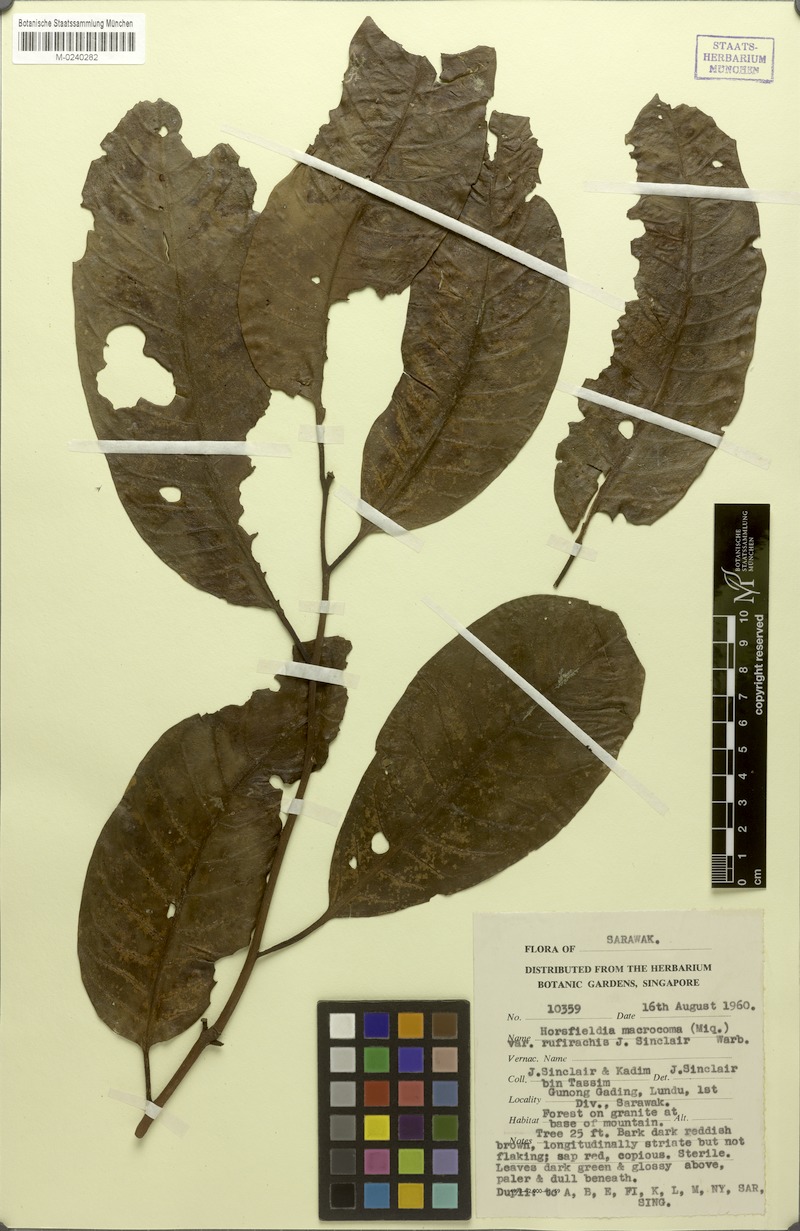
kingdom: Plantae
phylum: Tracheophyta
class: Magnoliopsida
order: Magnoliales
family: Myristicaceae
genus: Endocomia
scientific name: Endocomia macrocoma
